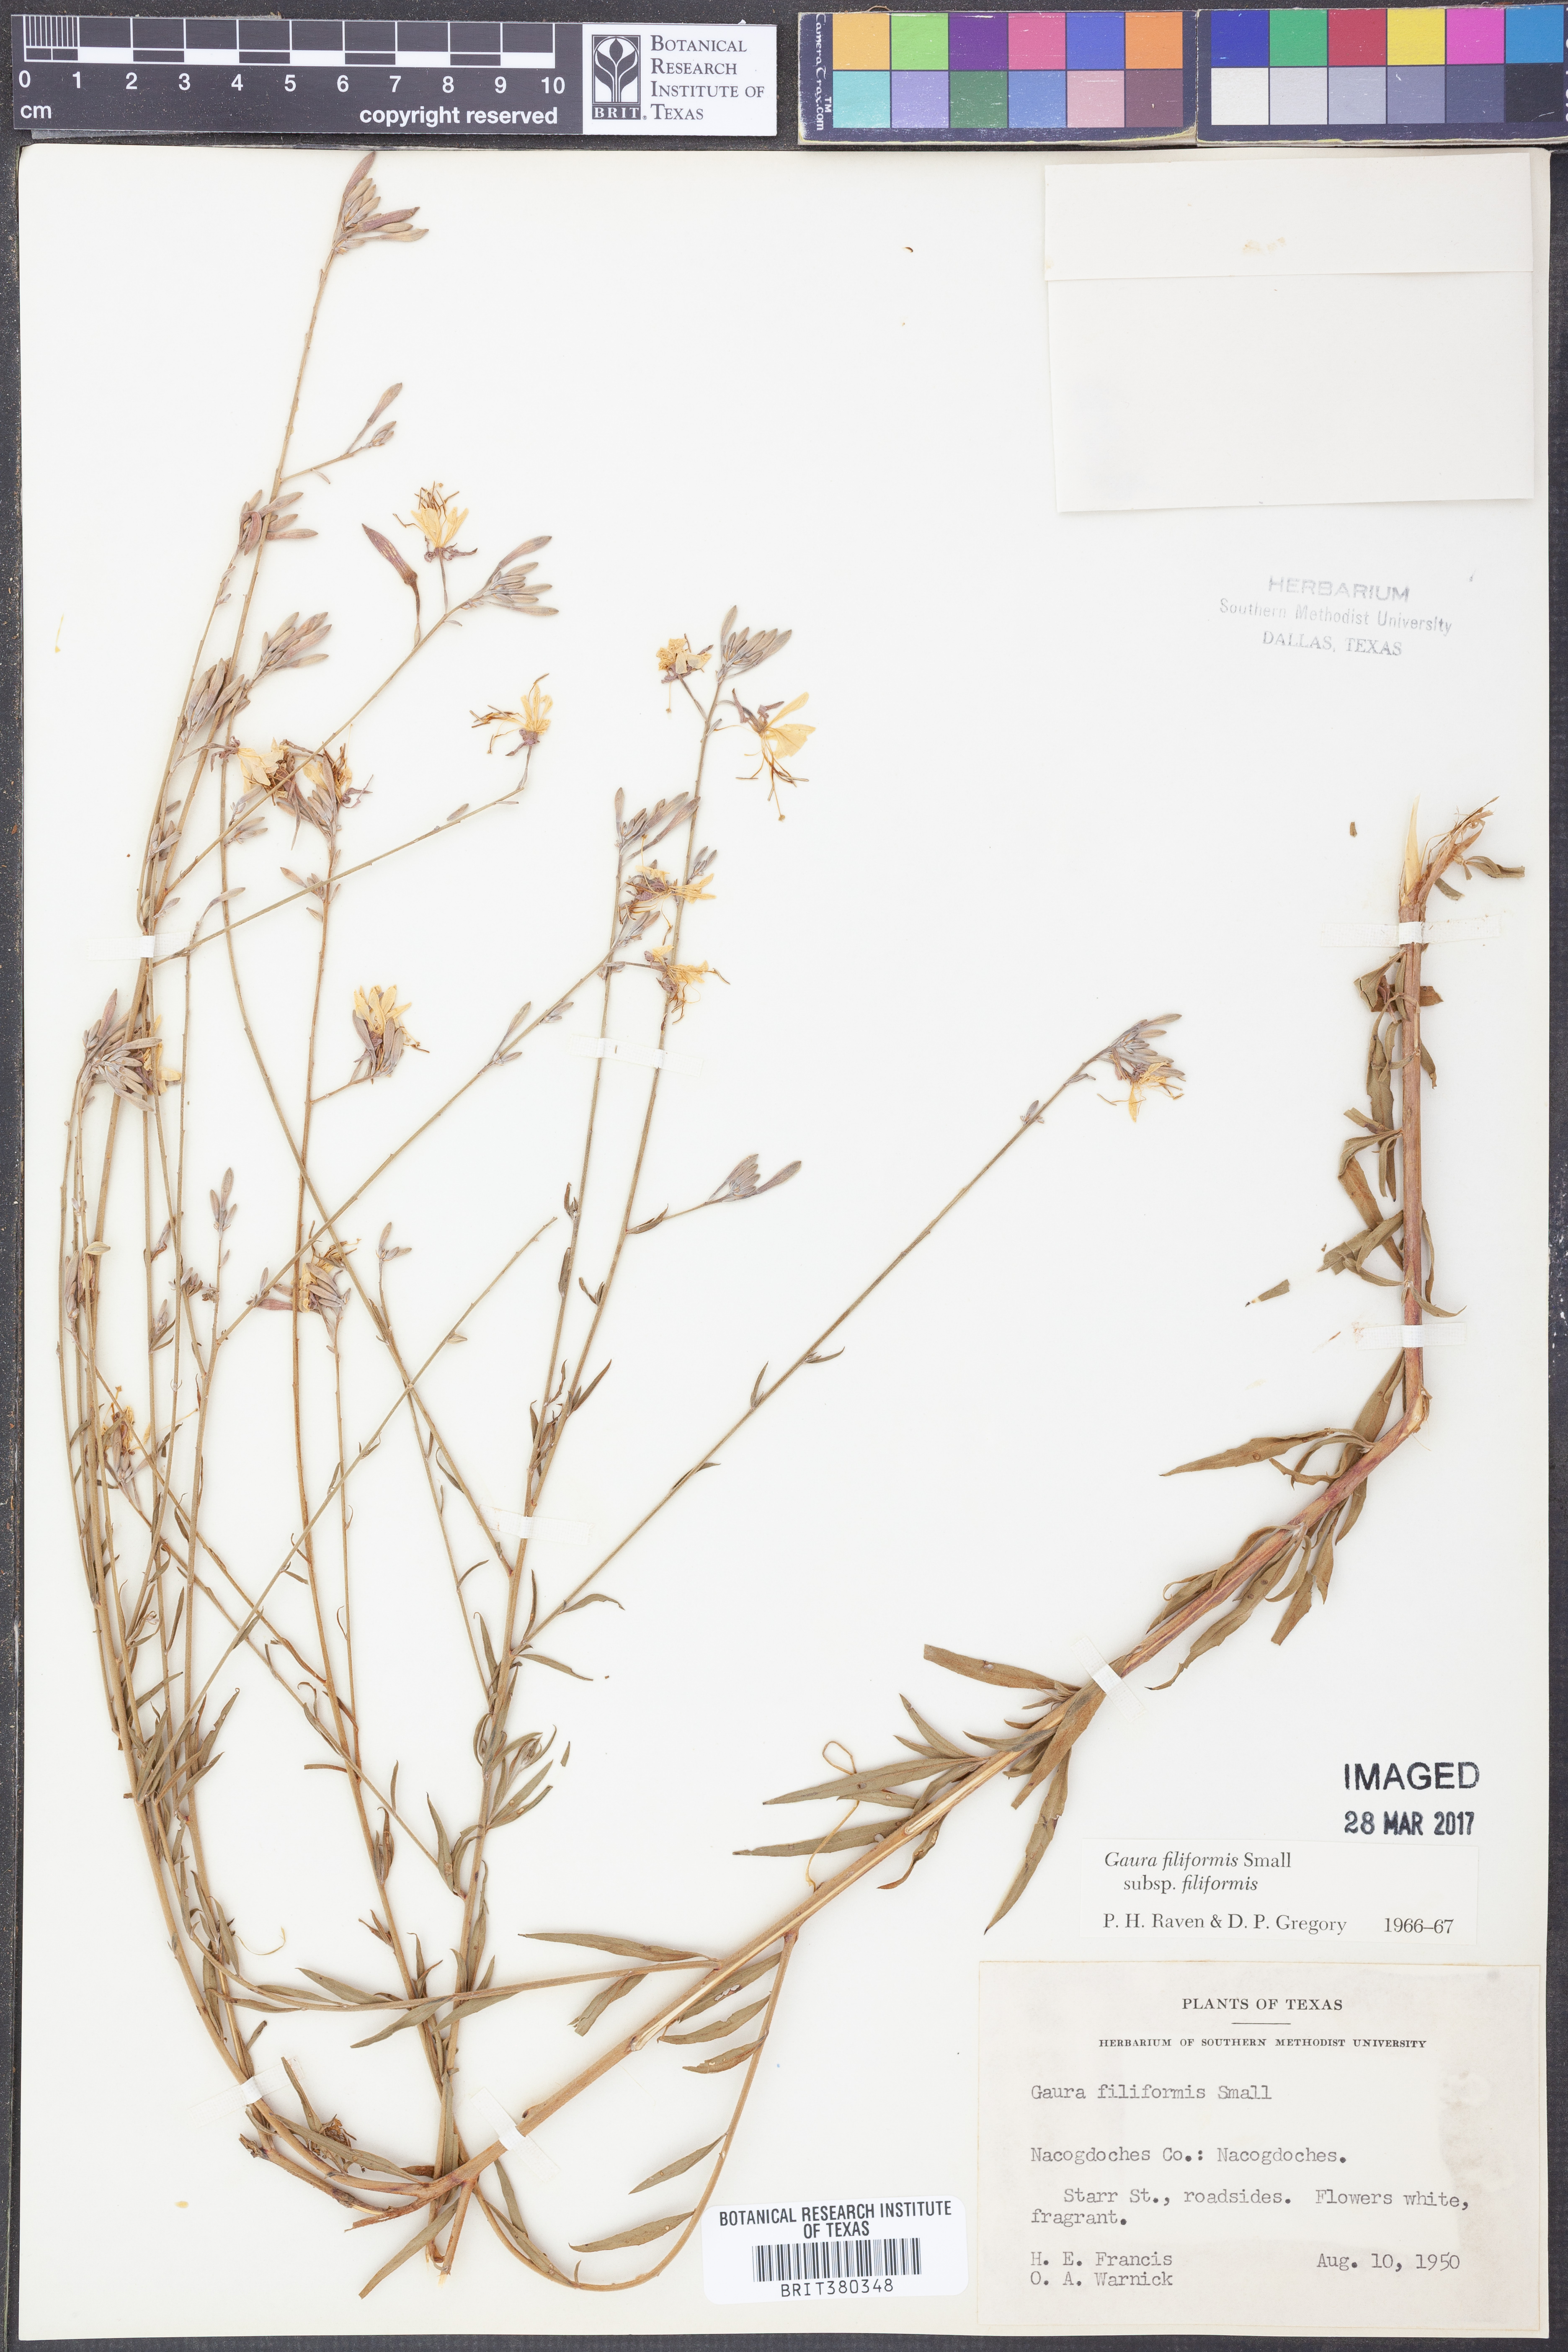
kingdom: Plantae
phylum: Tracheophyta
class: Magnoliopsida
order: Myrtales
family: Onagraceae
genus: Oenothera
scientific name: Oenothera filiformis
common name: Longflower beeblossom
